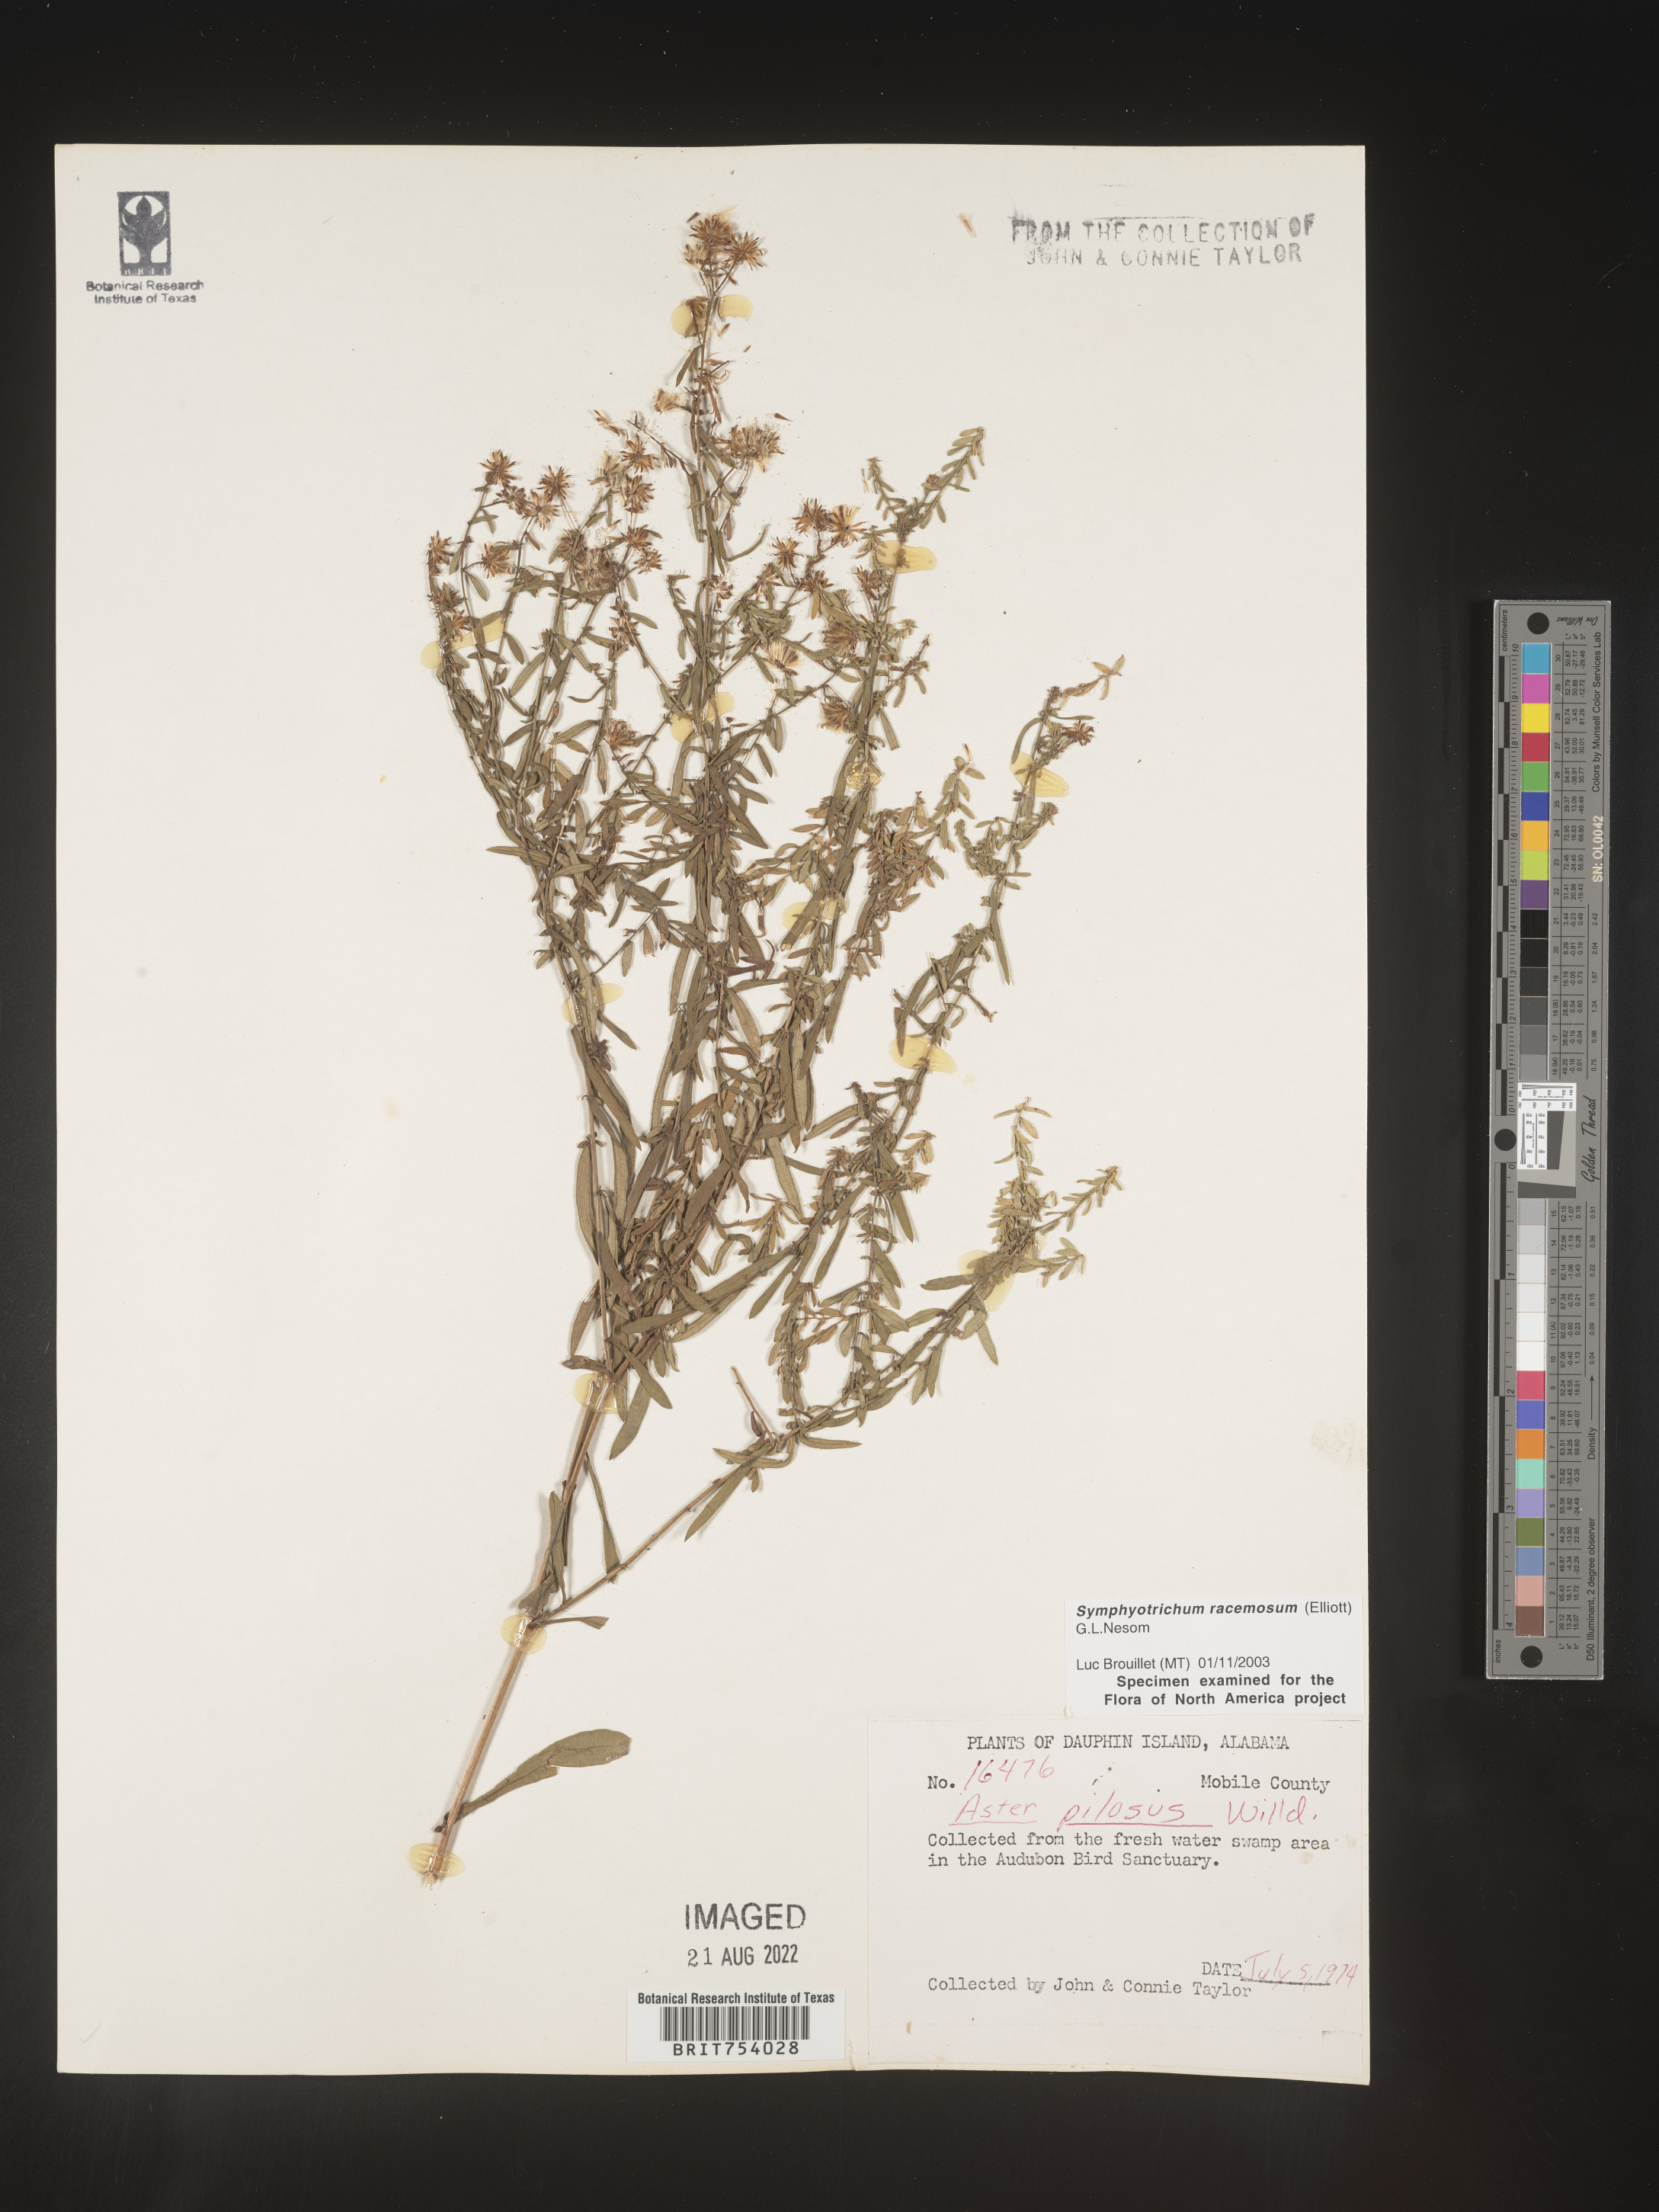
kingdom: Plantae
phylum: Tracheophyta
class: Magnoliopsida
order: Asterales
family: Asteraceae
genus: Symphyotrichum
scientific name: Symphyotrichum racemosum
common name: Small white aster
